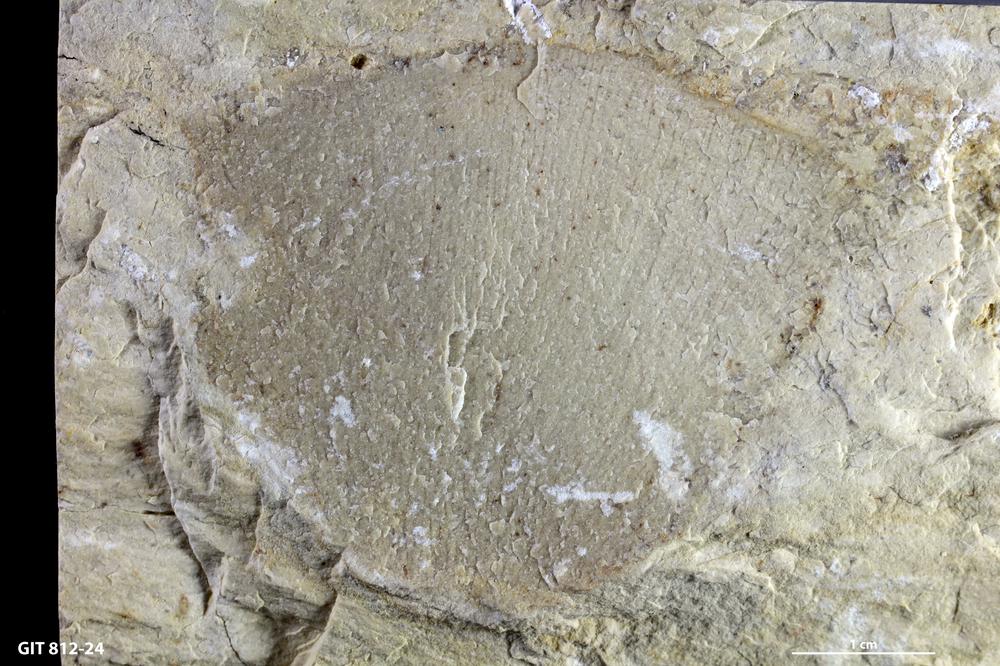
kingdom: Animalia
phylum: Porifera
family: Anthaspidellidae
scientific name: Anthaspidellidae
